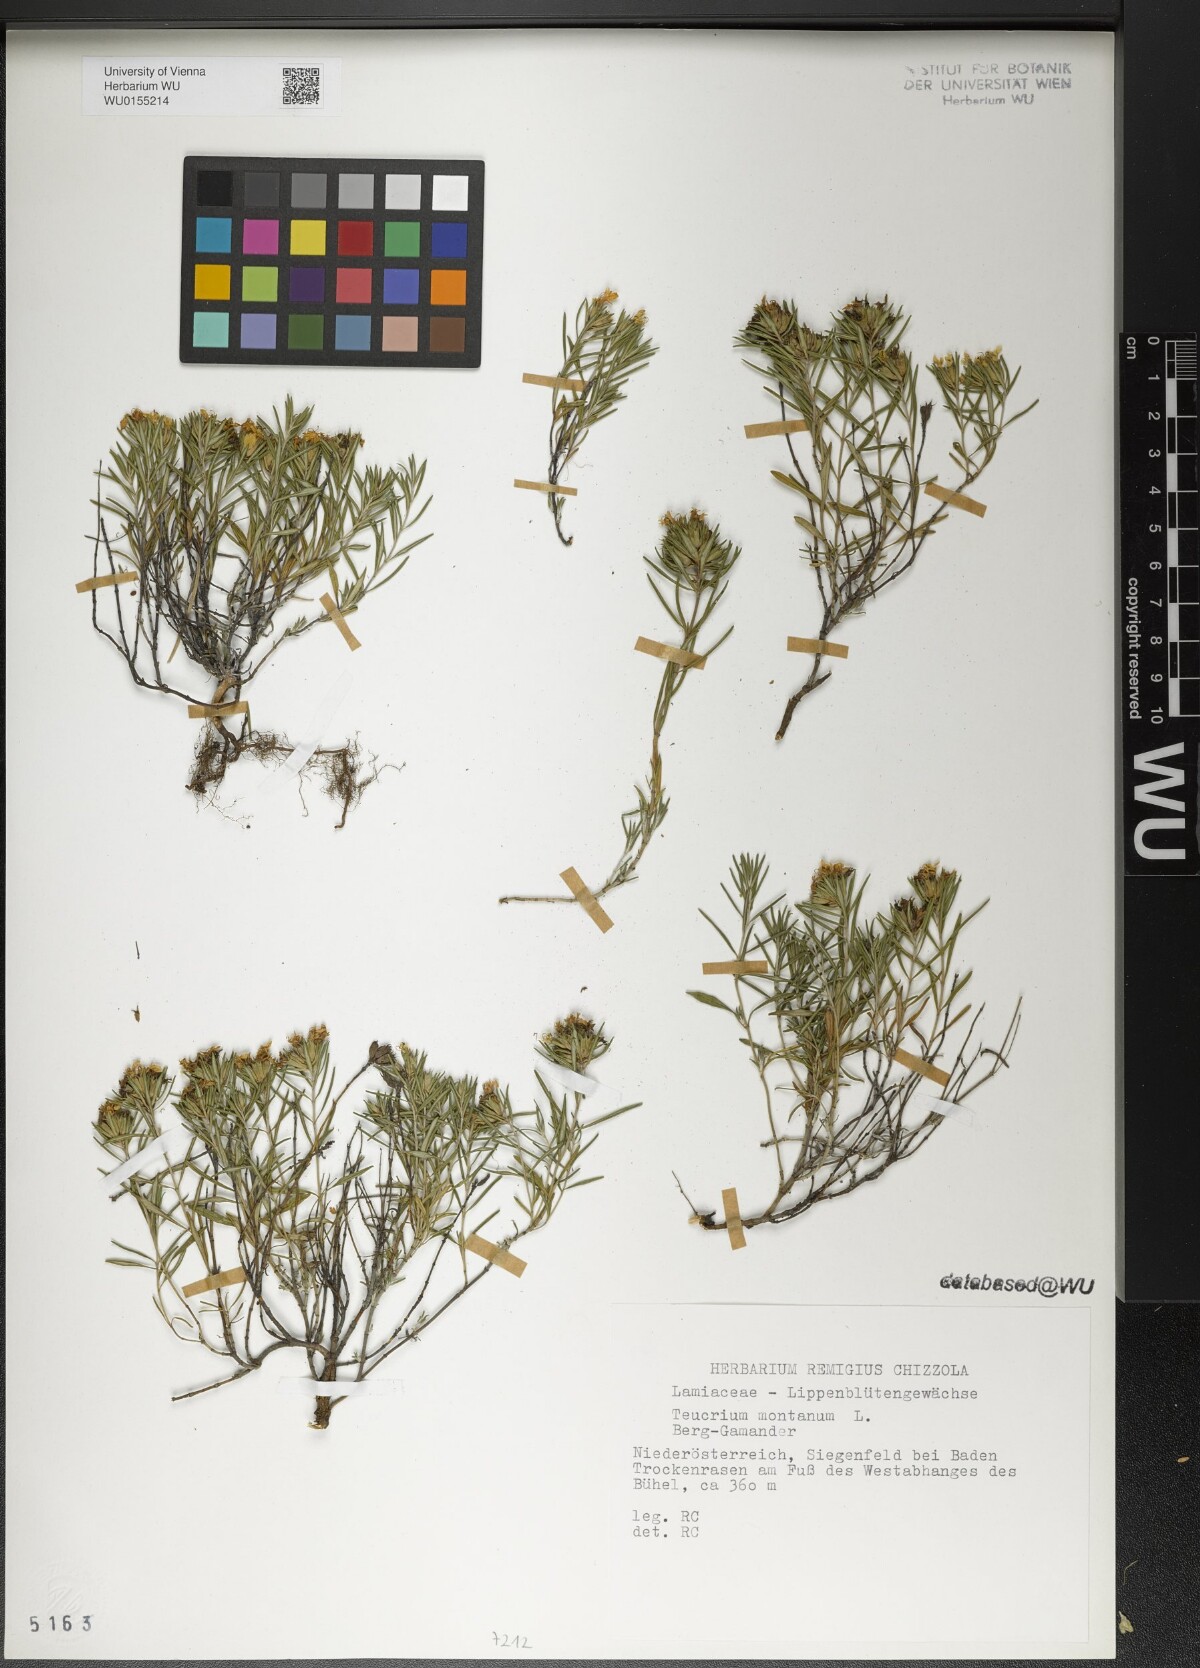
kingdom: Plantae
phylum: Tracheophyta
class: Magnoliopsida
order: Lamiales
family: Lamiaceae
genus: Teucrium
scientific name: Teucrium montanum
